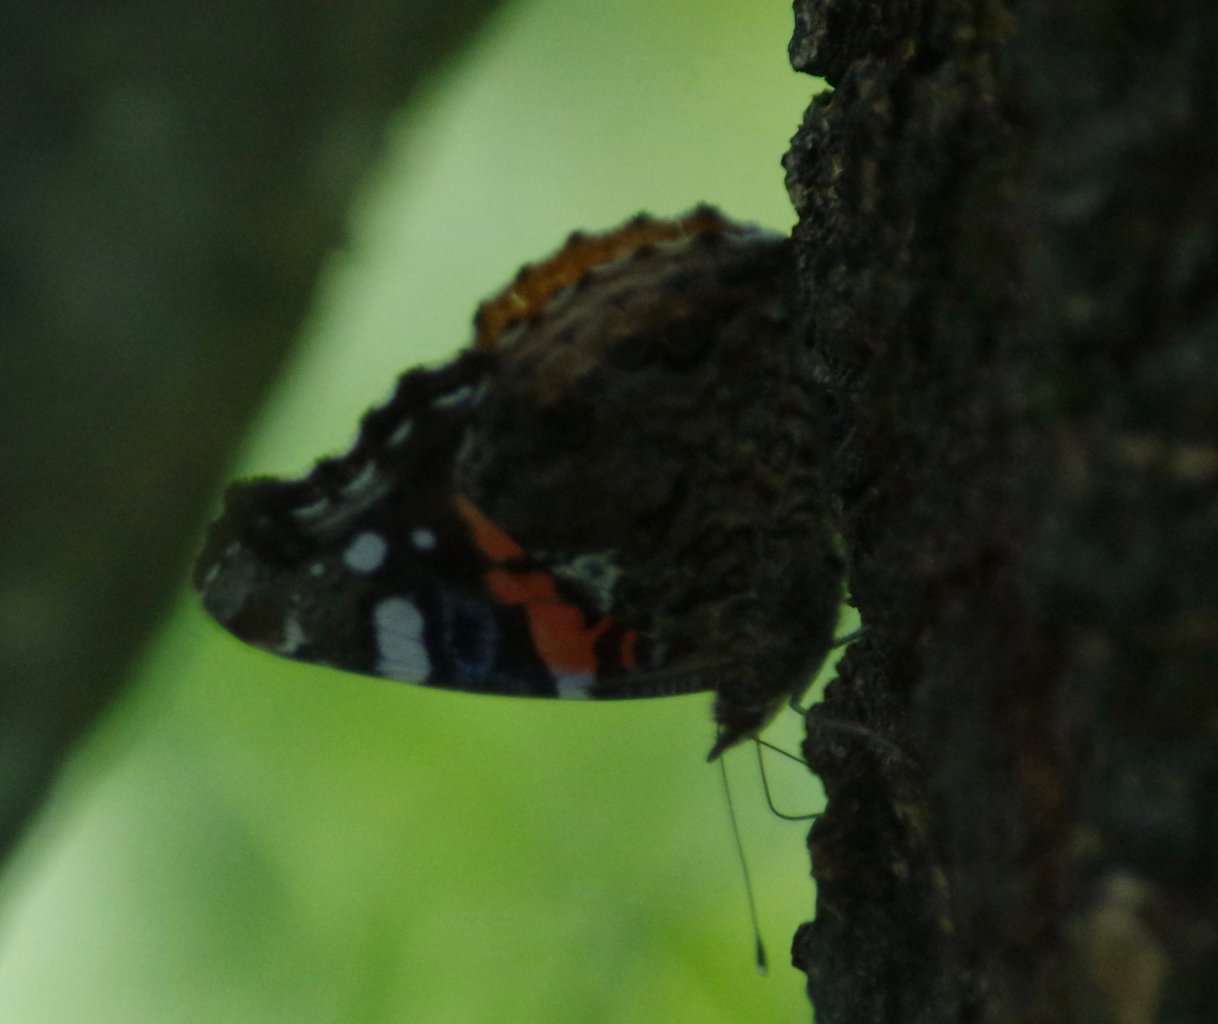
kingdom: Animalia
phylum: Arthropoda
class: Insecta
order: Lepidoptera
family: Nymphalidae
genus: Vanessa
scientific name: Vanessa atalanta
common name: Red Admiral
